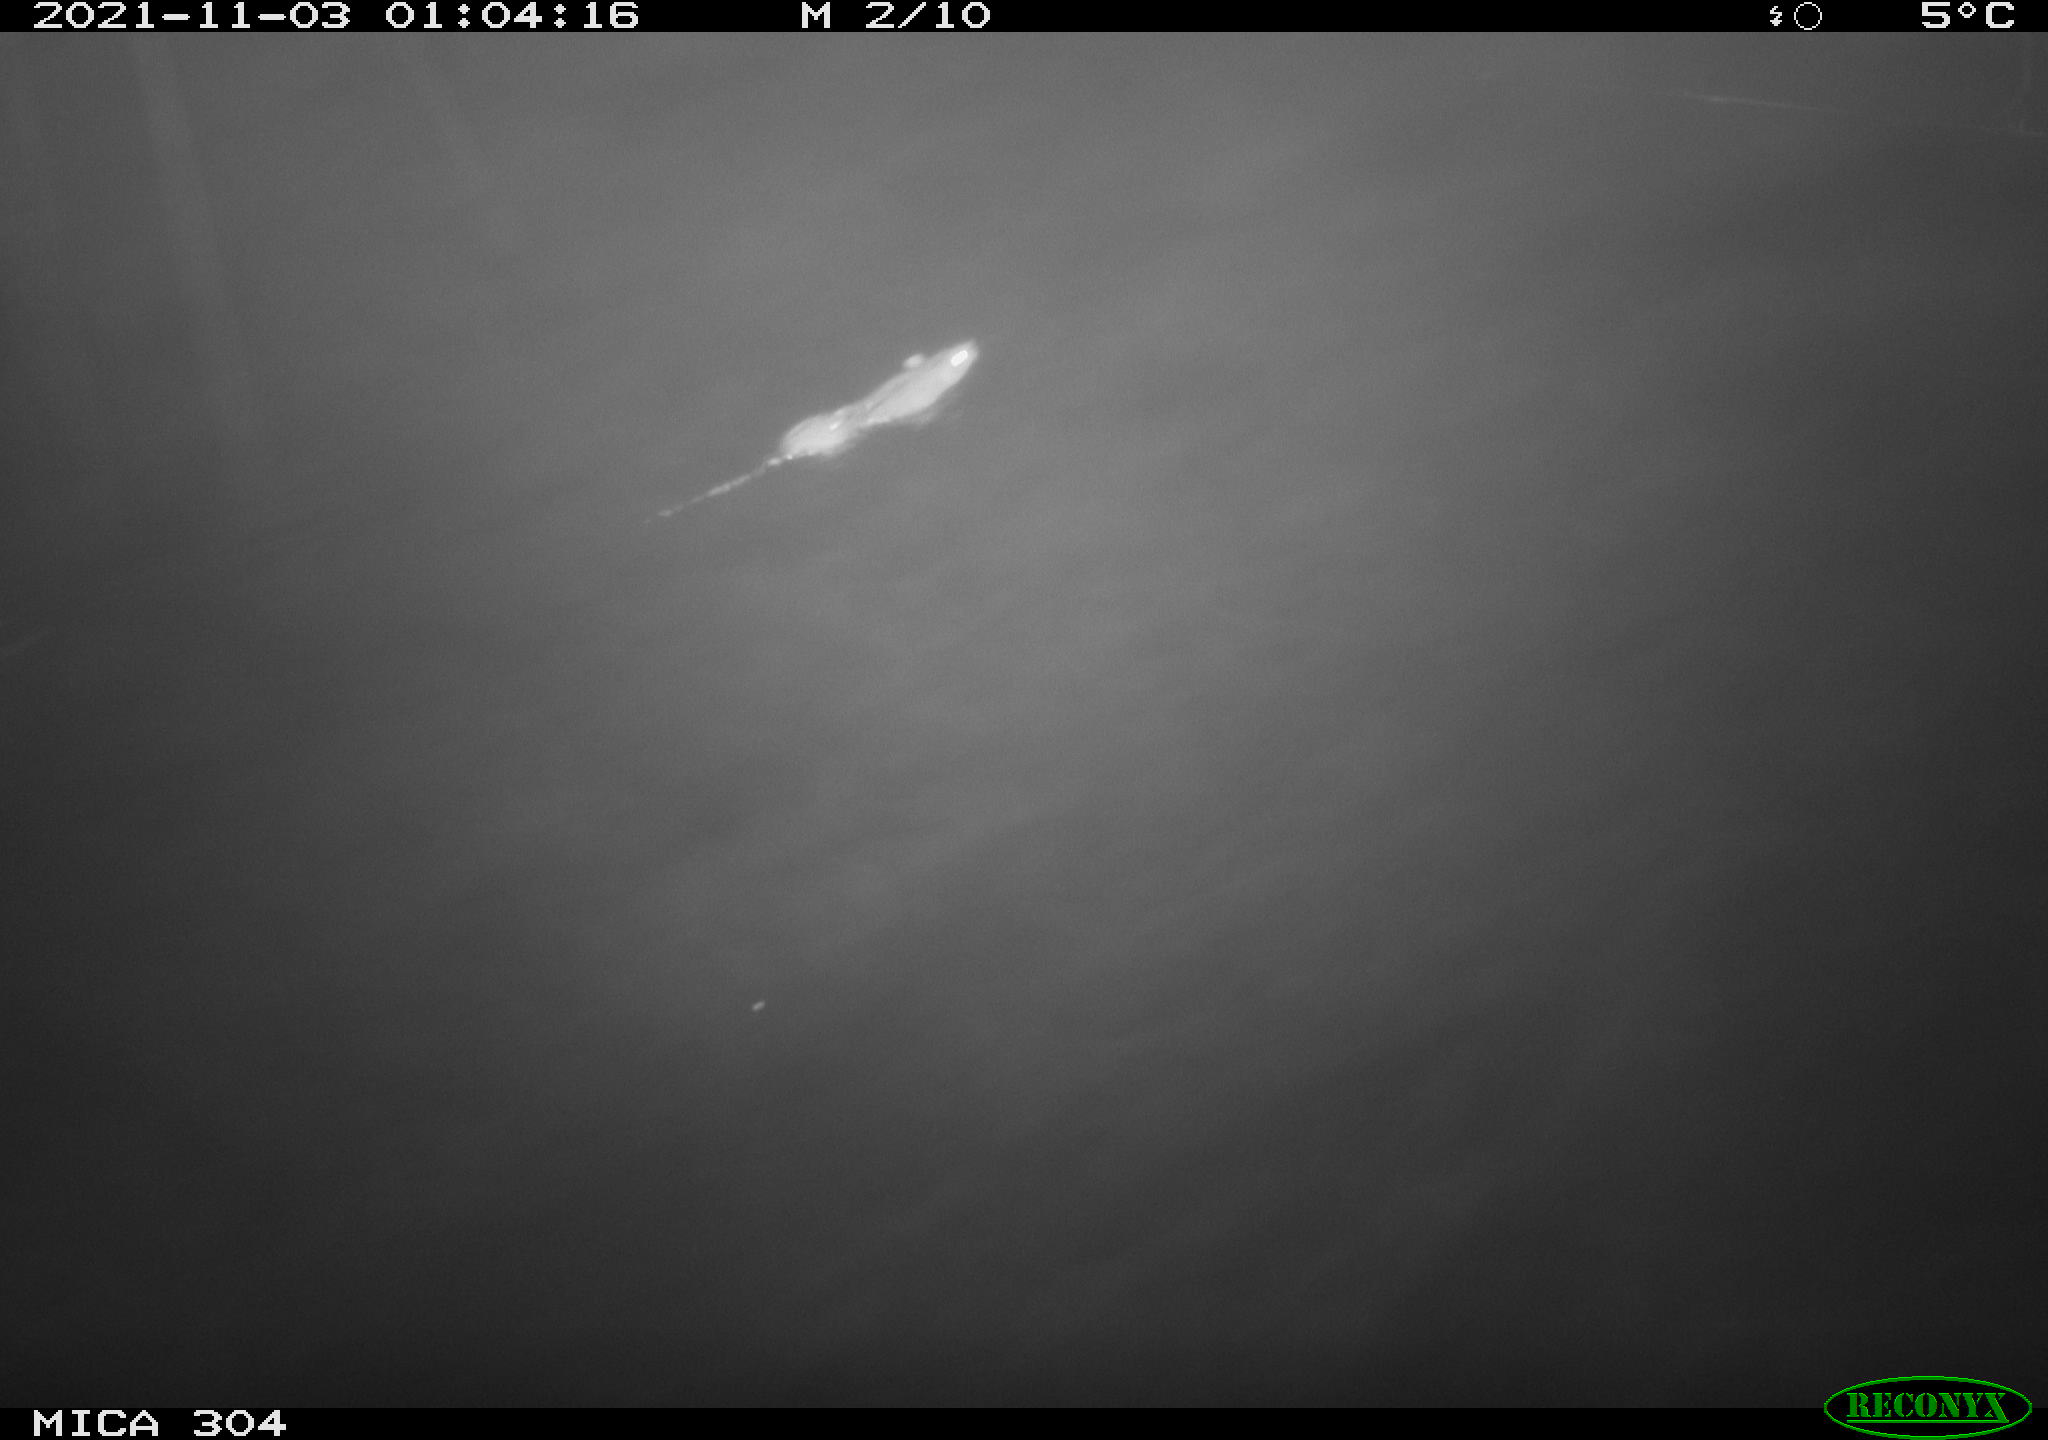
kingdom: Animalia
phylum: Chordata
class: Mammalia
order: Rodentia
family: Muridae
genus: Rattus
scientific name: Rattus norvegicus
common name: Brown rat
